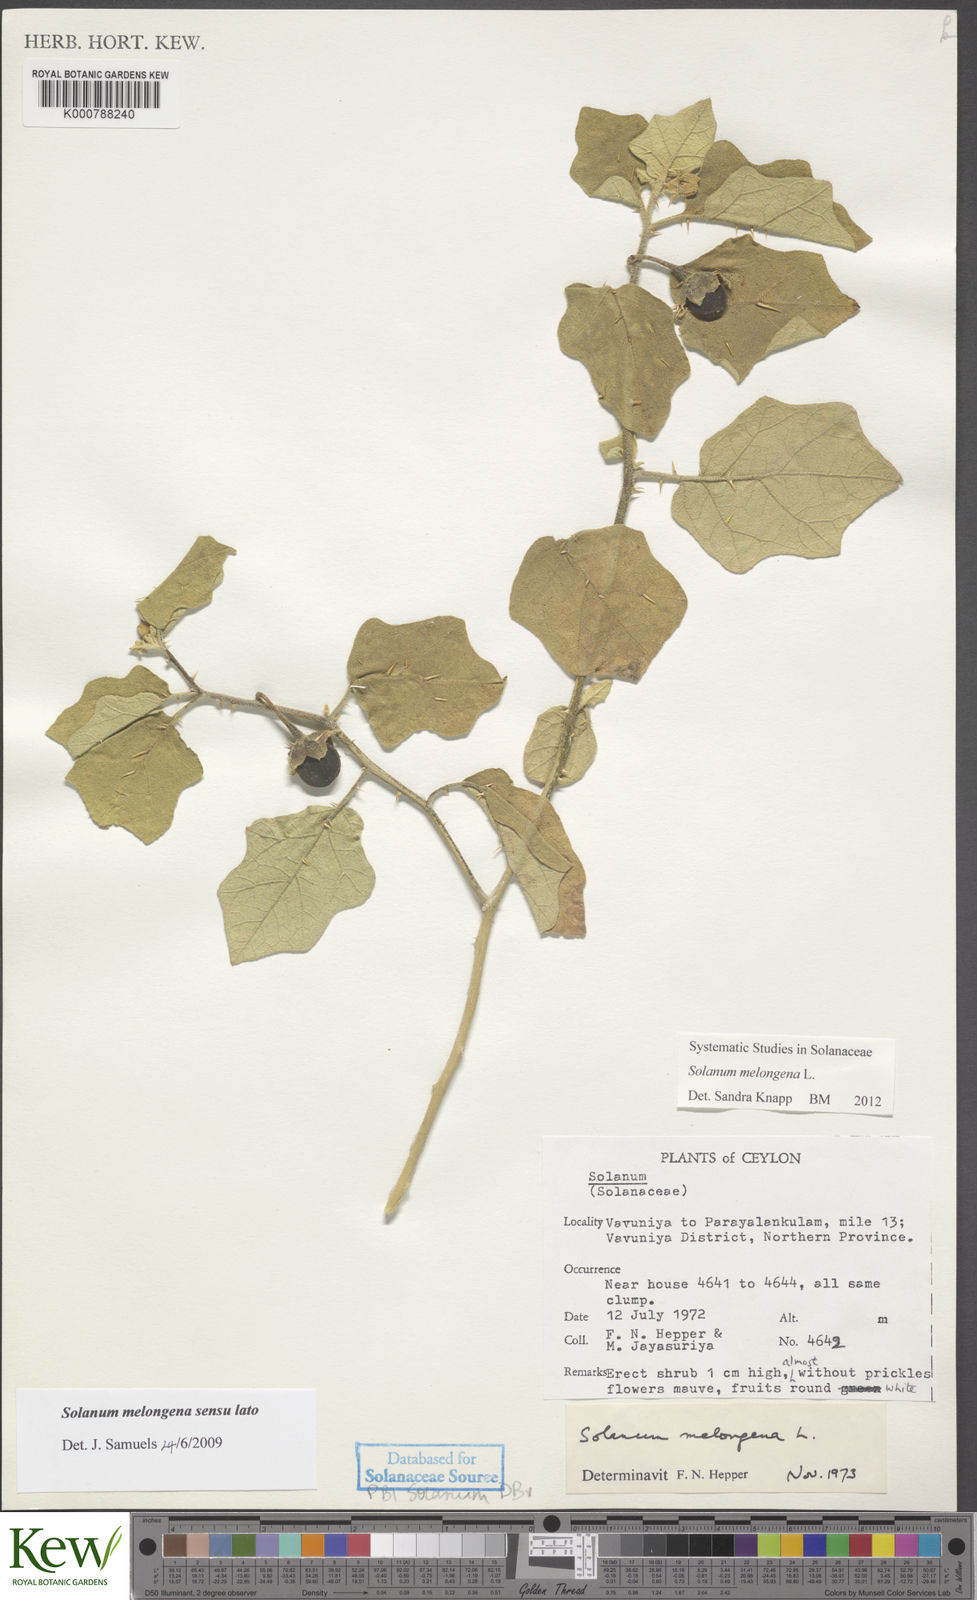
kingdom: Plantae
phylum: Tracheophyta
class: Magnoliopsida
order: Solanales
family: Solanaceae
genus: Solanum
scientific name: Solanum melongena
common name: Eggplant
